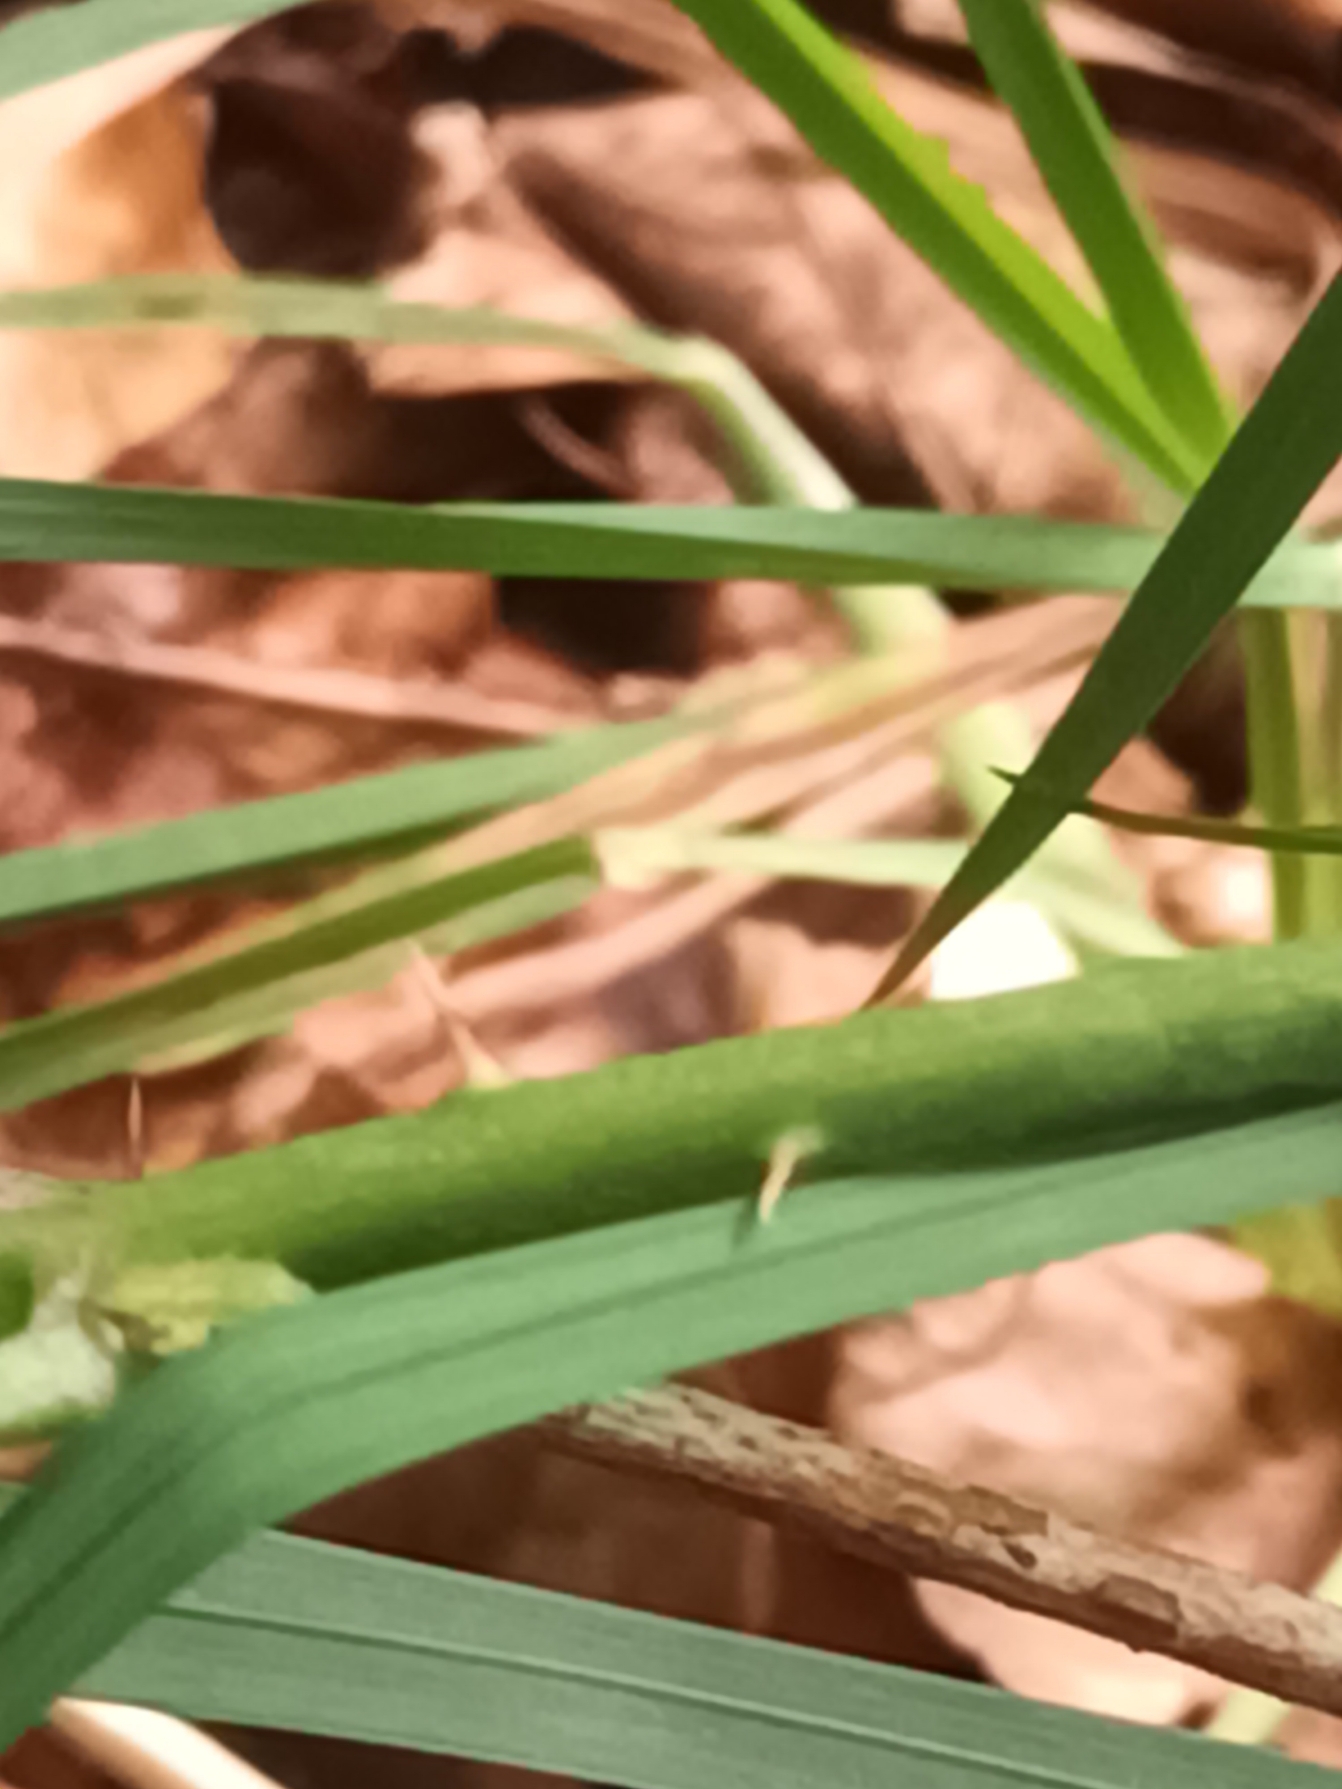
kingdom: Plantae
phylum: Tracheophyta
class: Magnoliopsida
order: Rosales
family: Rosaceae
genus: Rubus
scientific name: Rubus fasciculatus
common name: Gråbladet hasselbrombær
